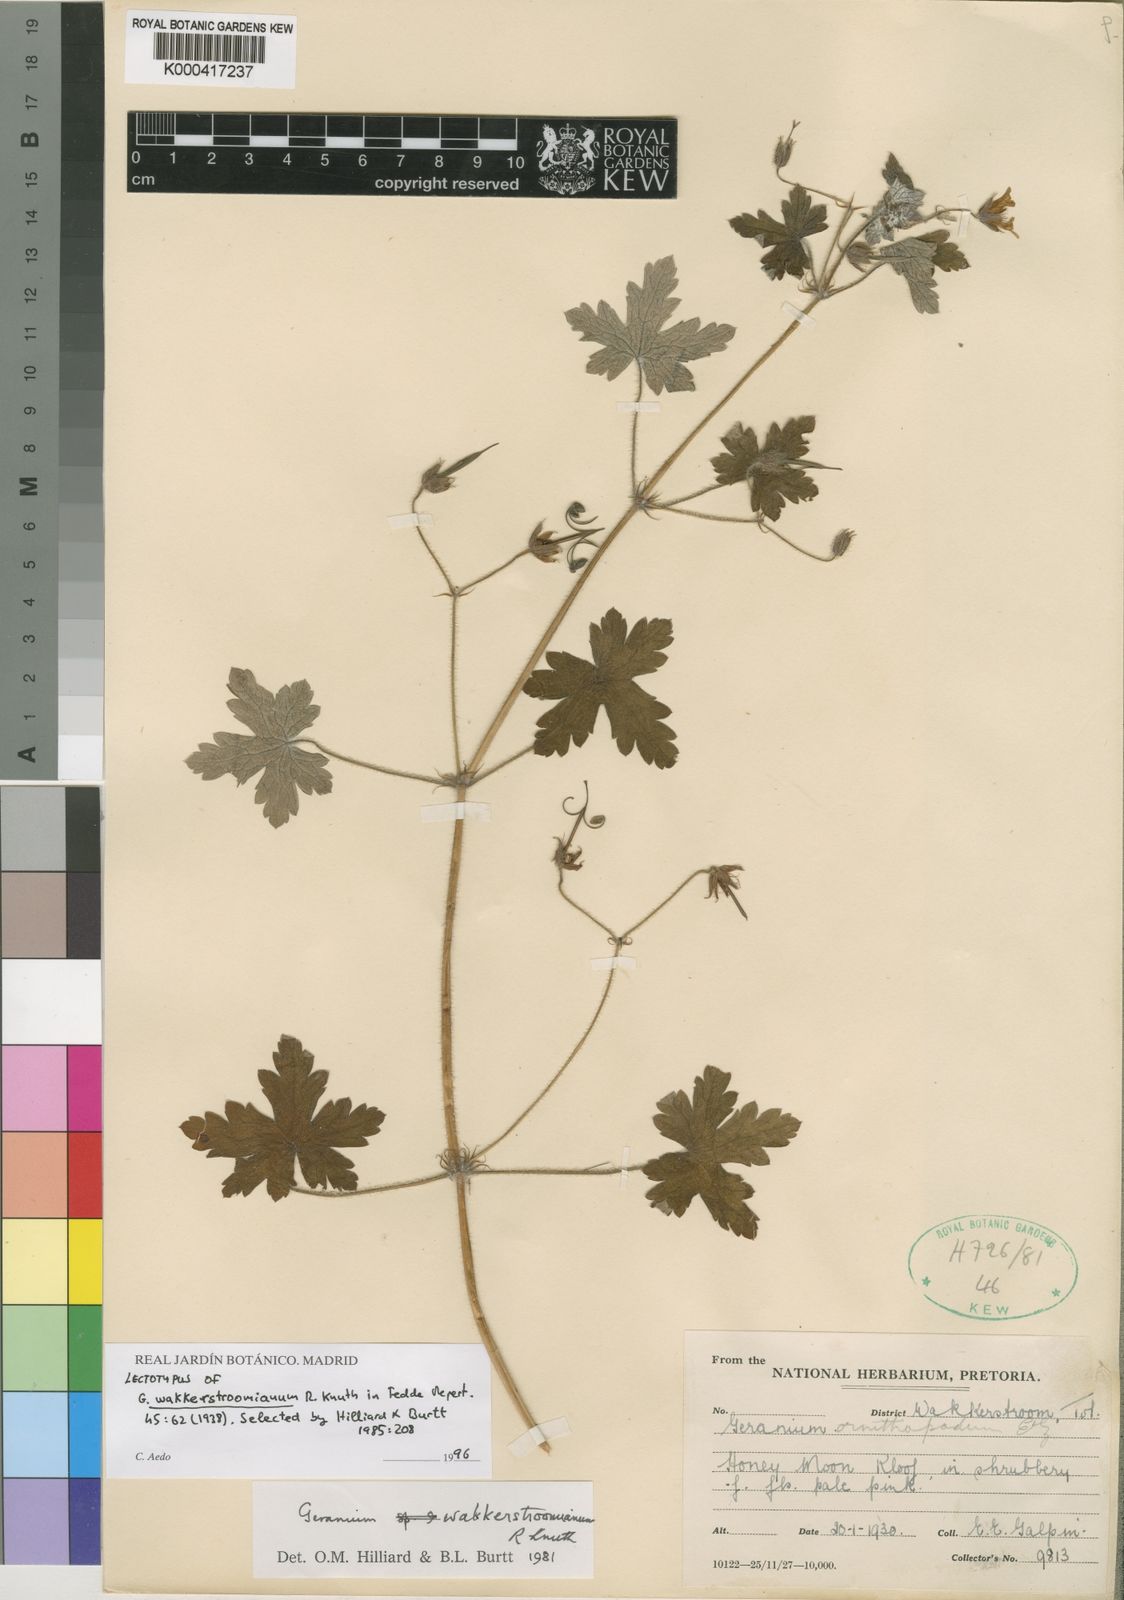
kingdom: Plantae
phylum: Tracheophyta
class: Magnoliopsida
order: Geraniales
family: Geraniaceae
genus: Geranium
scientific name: Geranium wakkerstroomianum
